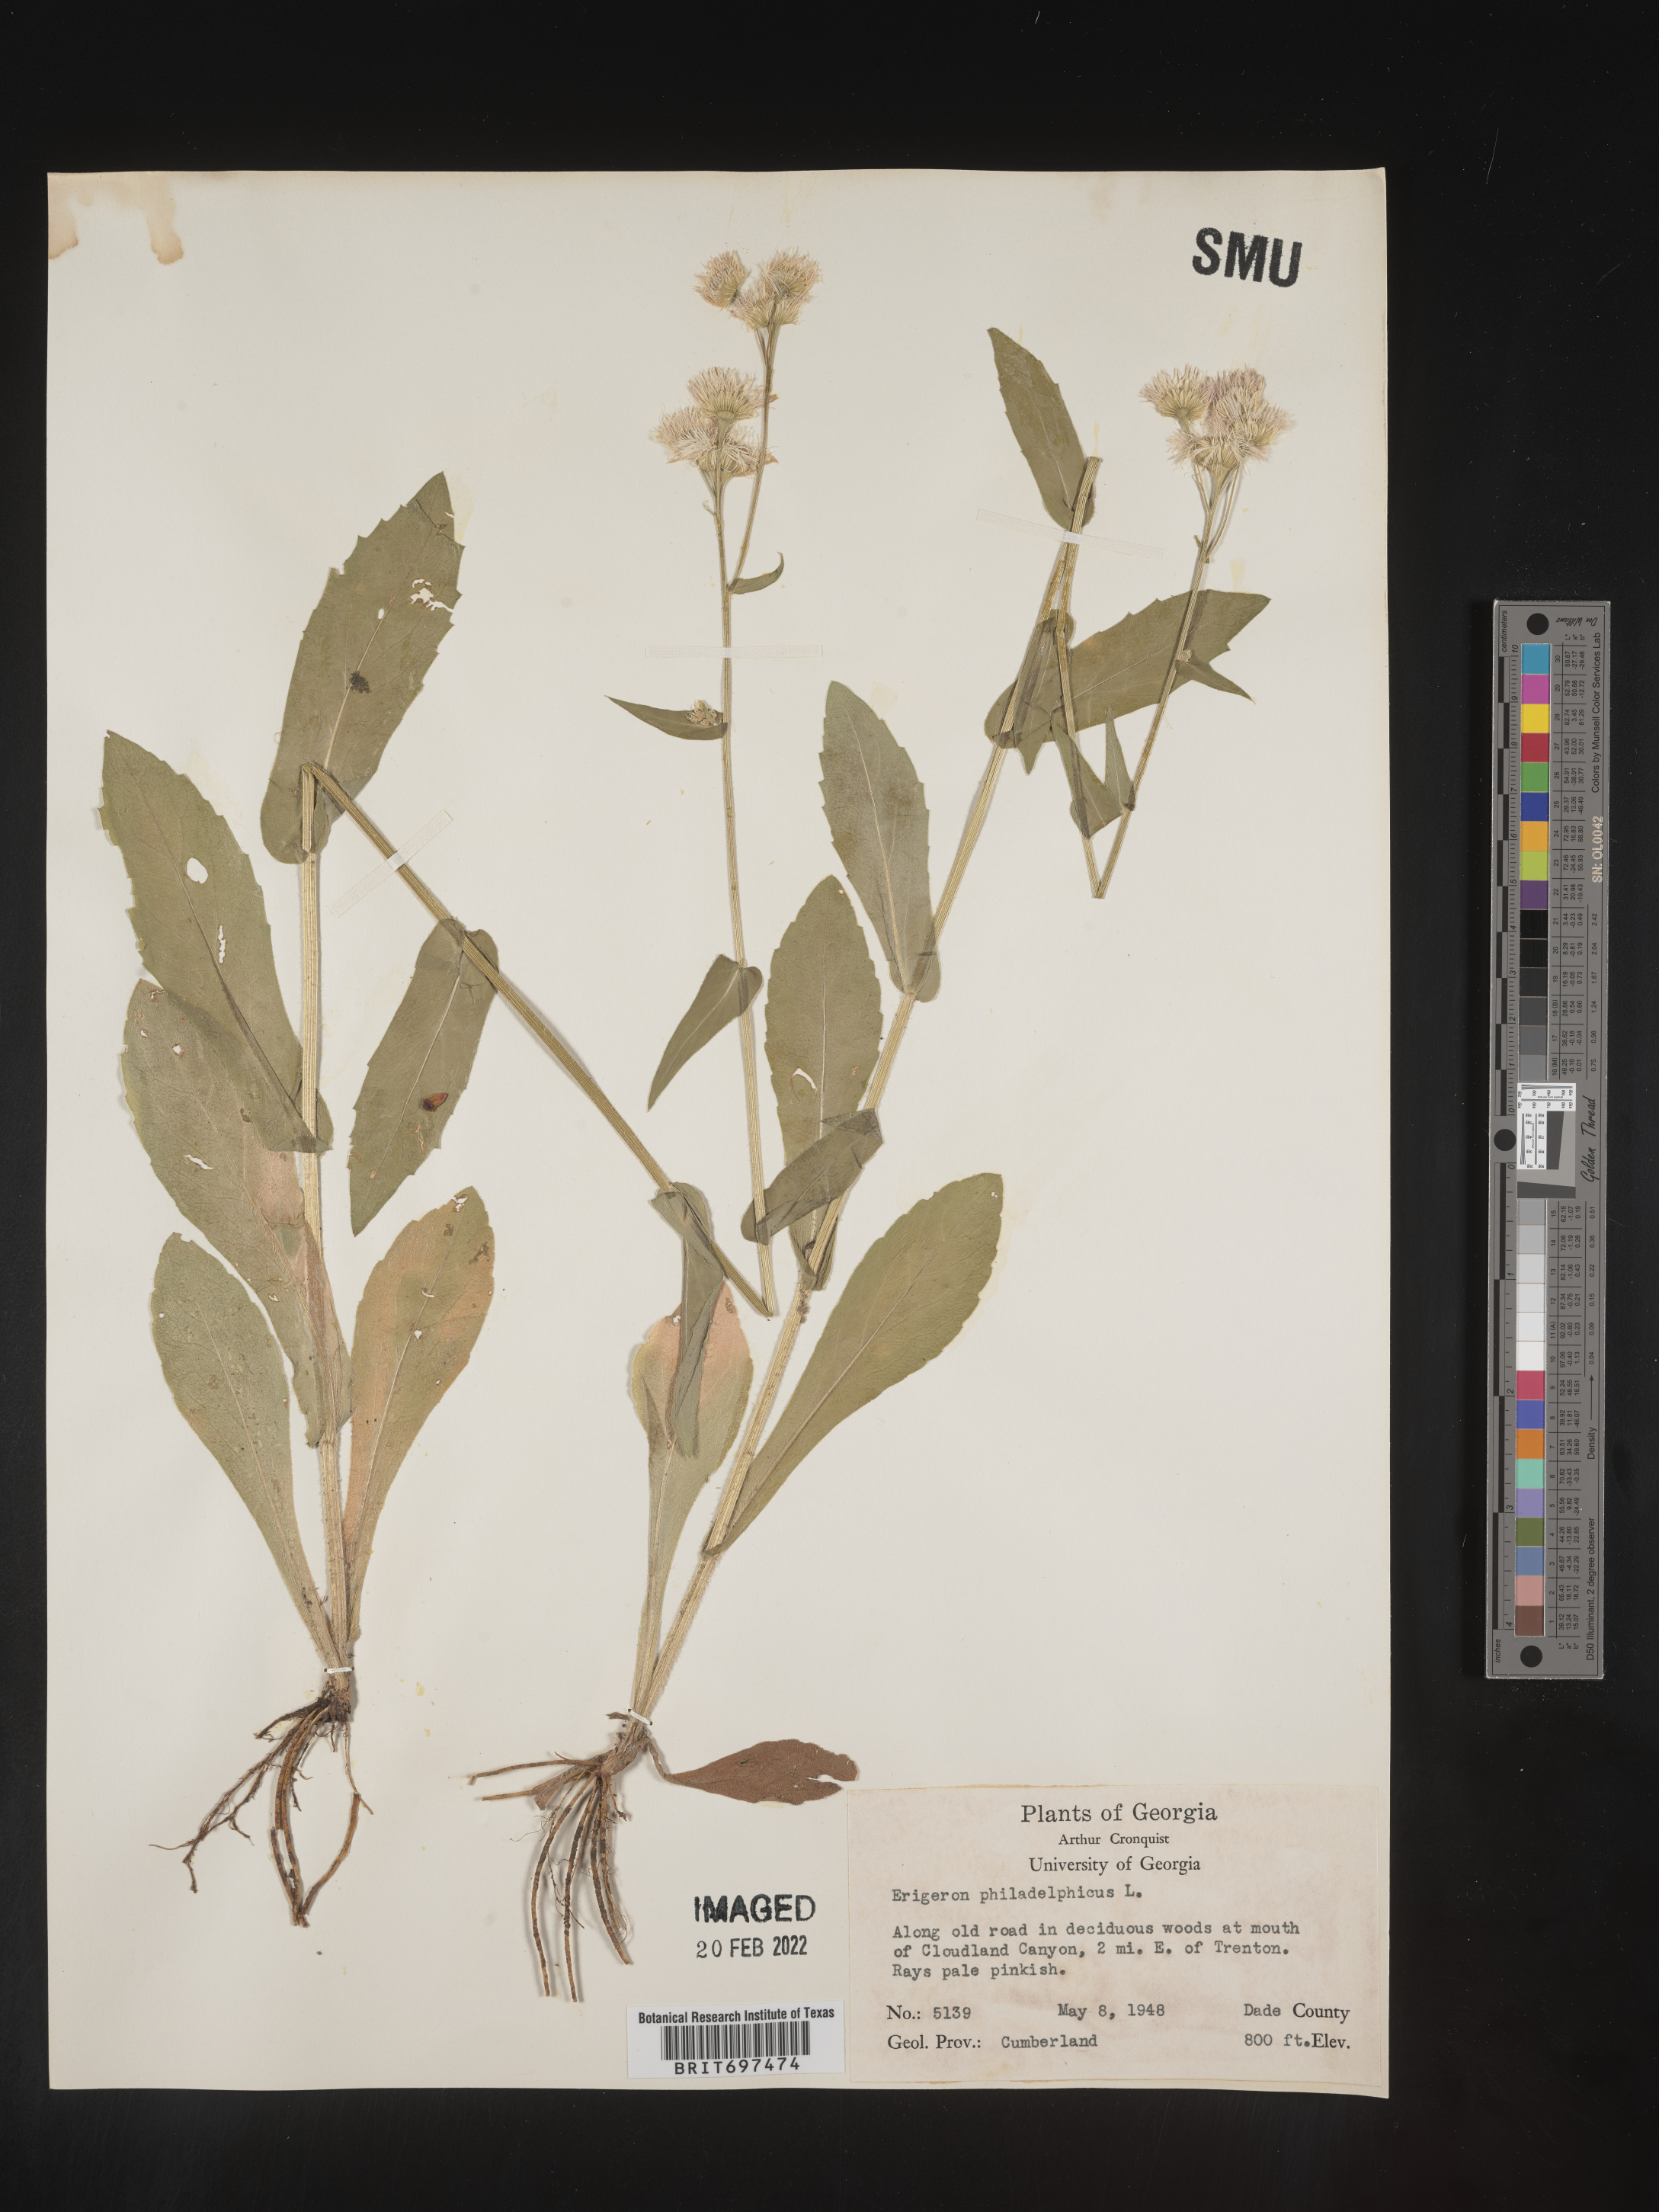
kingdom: Plantae
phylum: Tracheophyta
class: Magnoliopsida
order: Asterales
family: Asteraceae
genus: Erigeron
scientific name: Erigeron philadelphicus
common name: Robin's-plantain
